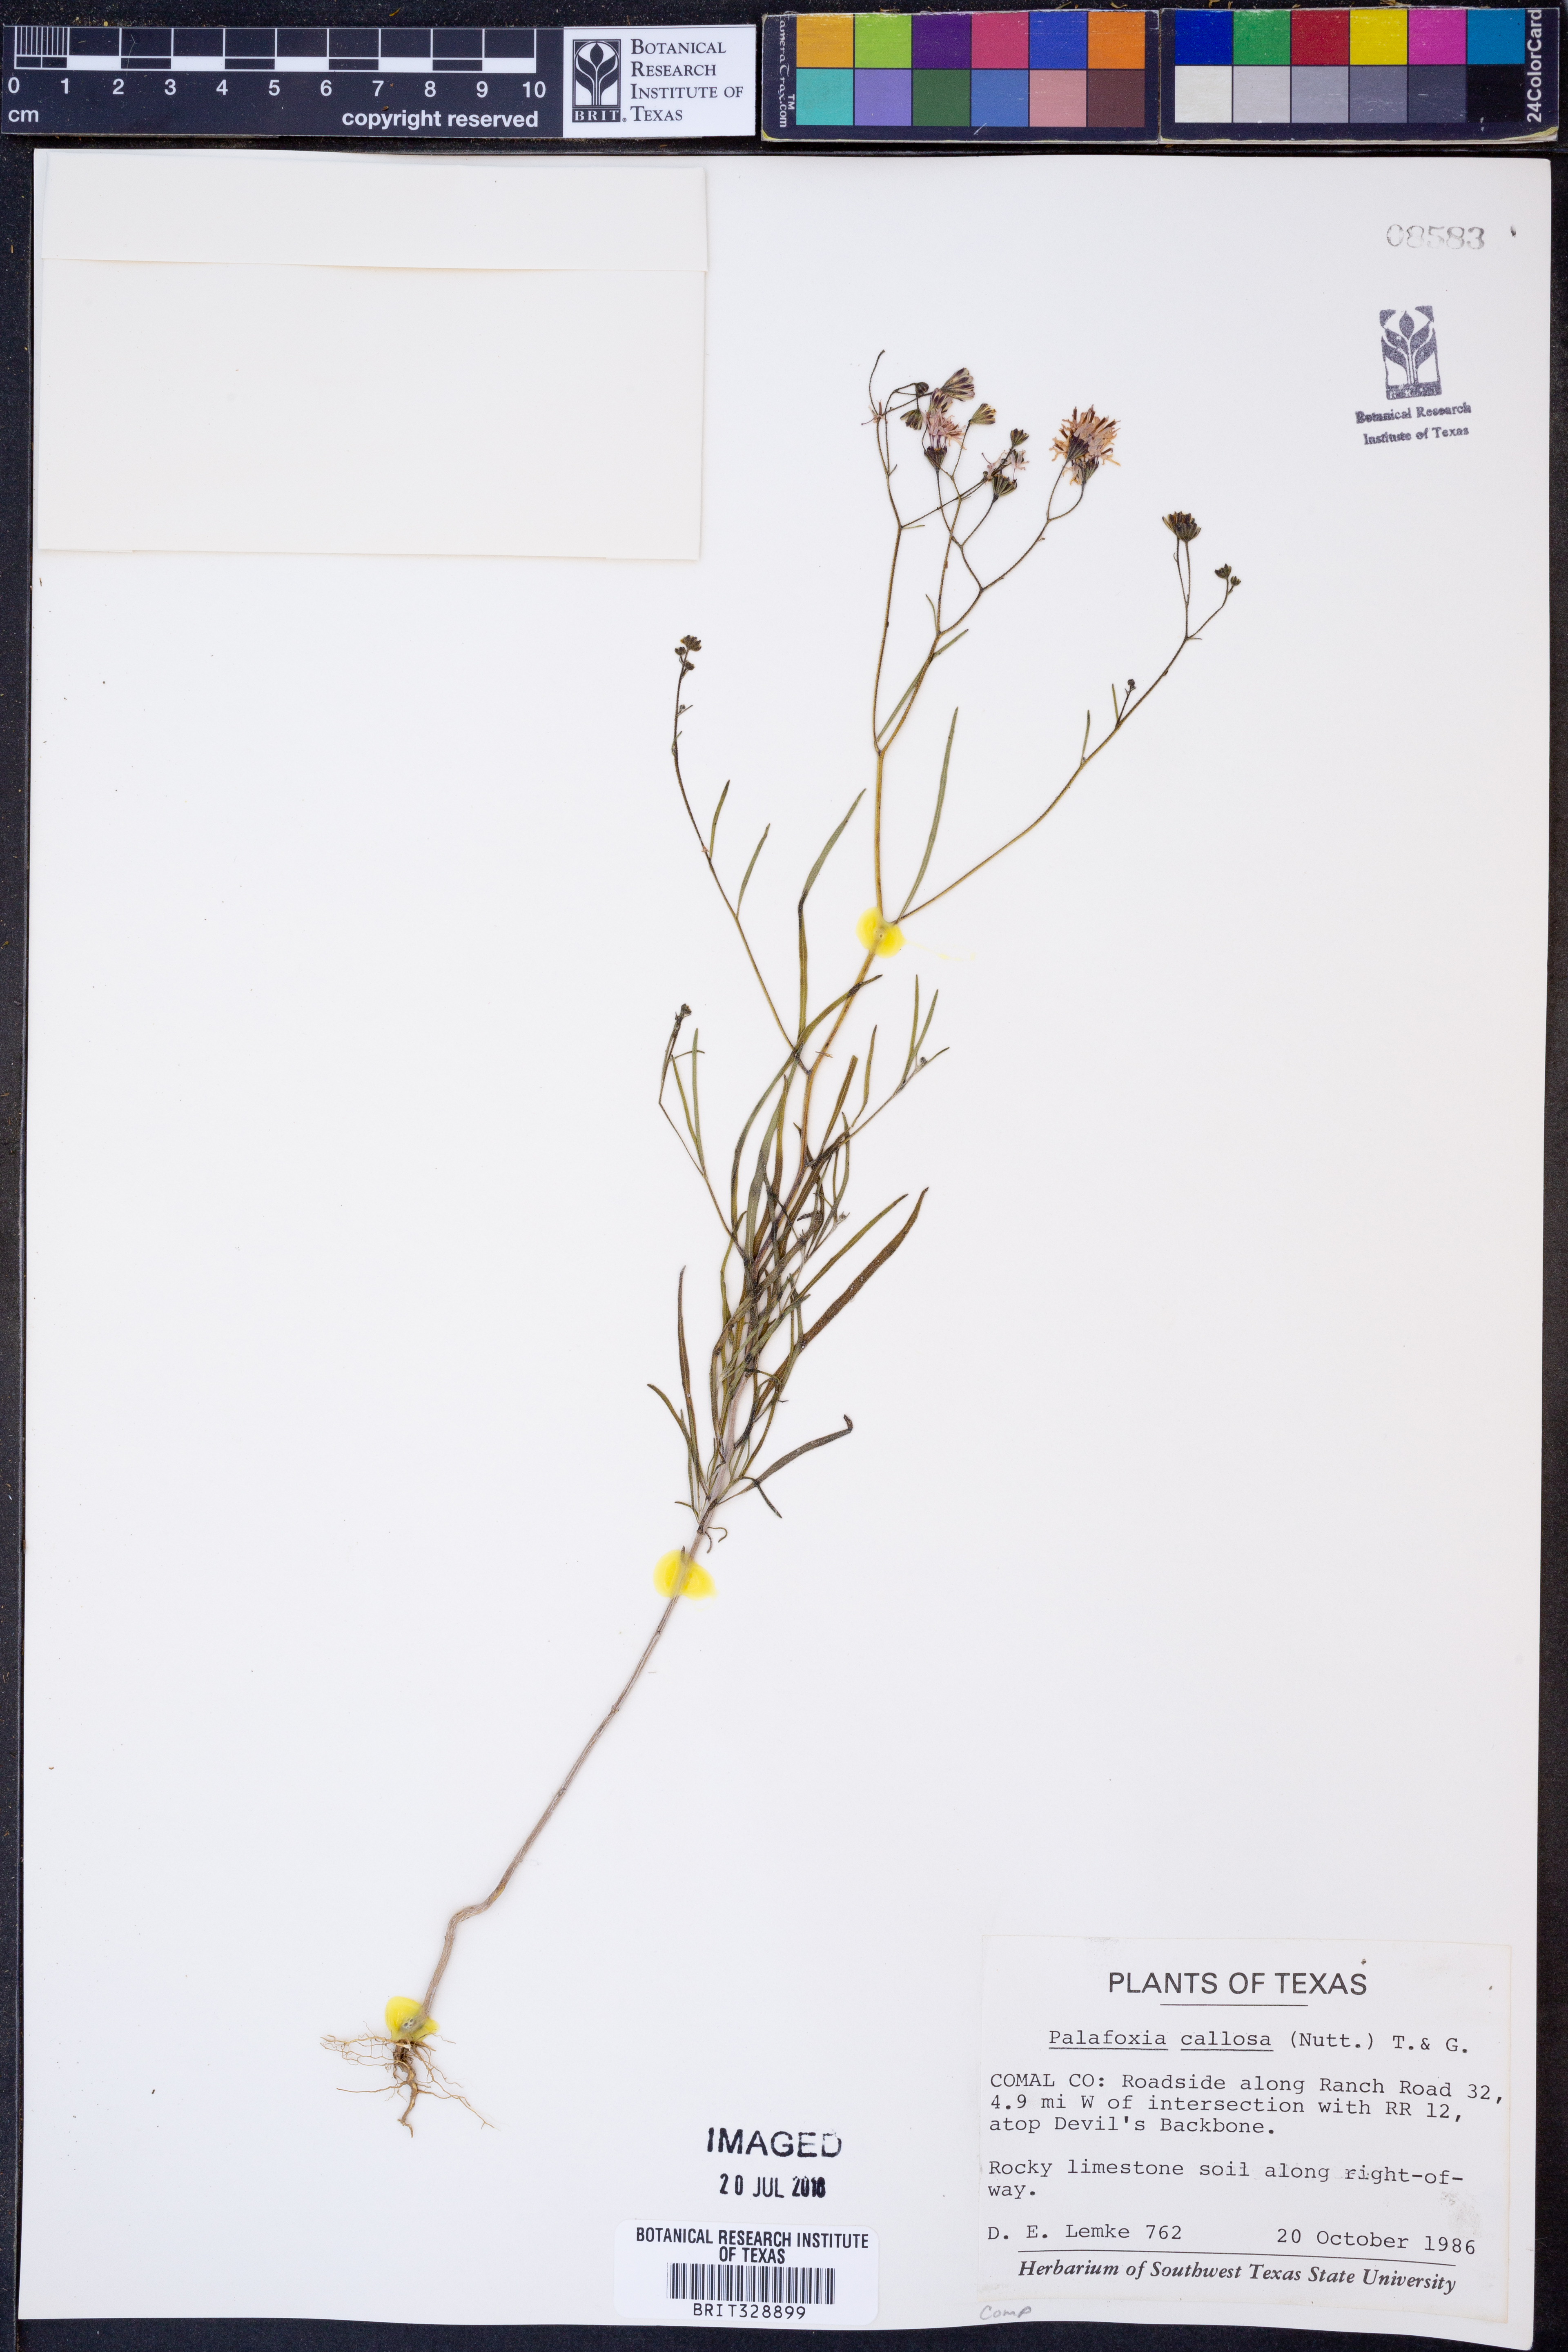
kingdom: Plantae
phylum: Tracheophyta
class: Magnoliopsida
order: Asterales
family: Asteraceae
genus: Palafoxia
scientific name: Palafoxia callosa
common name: Small palafox
